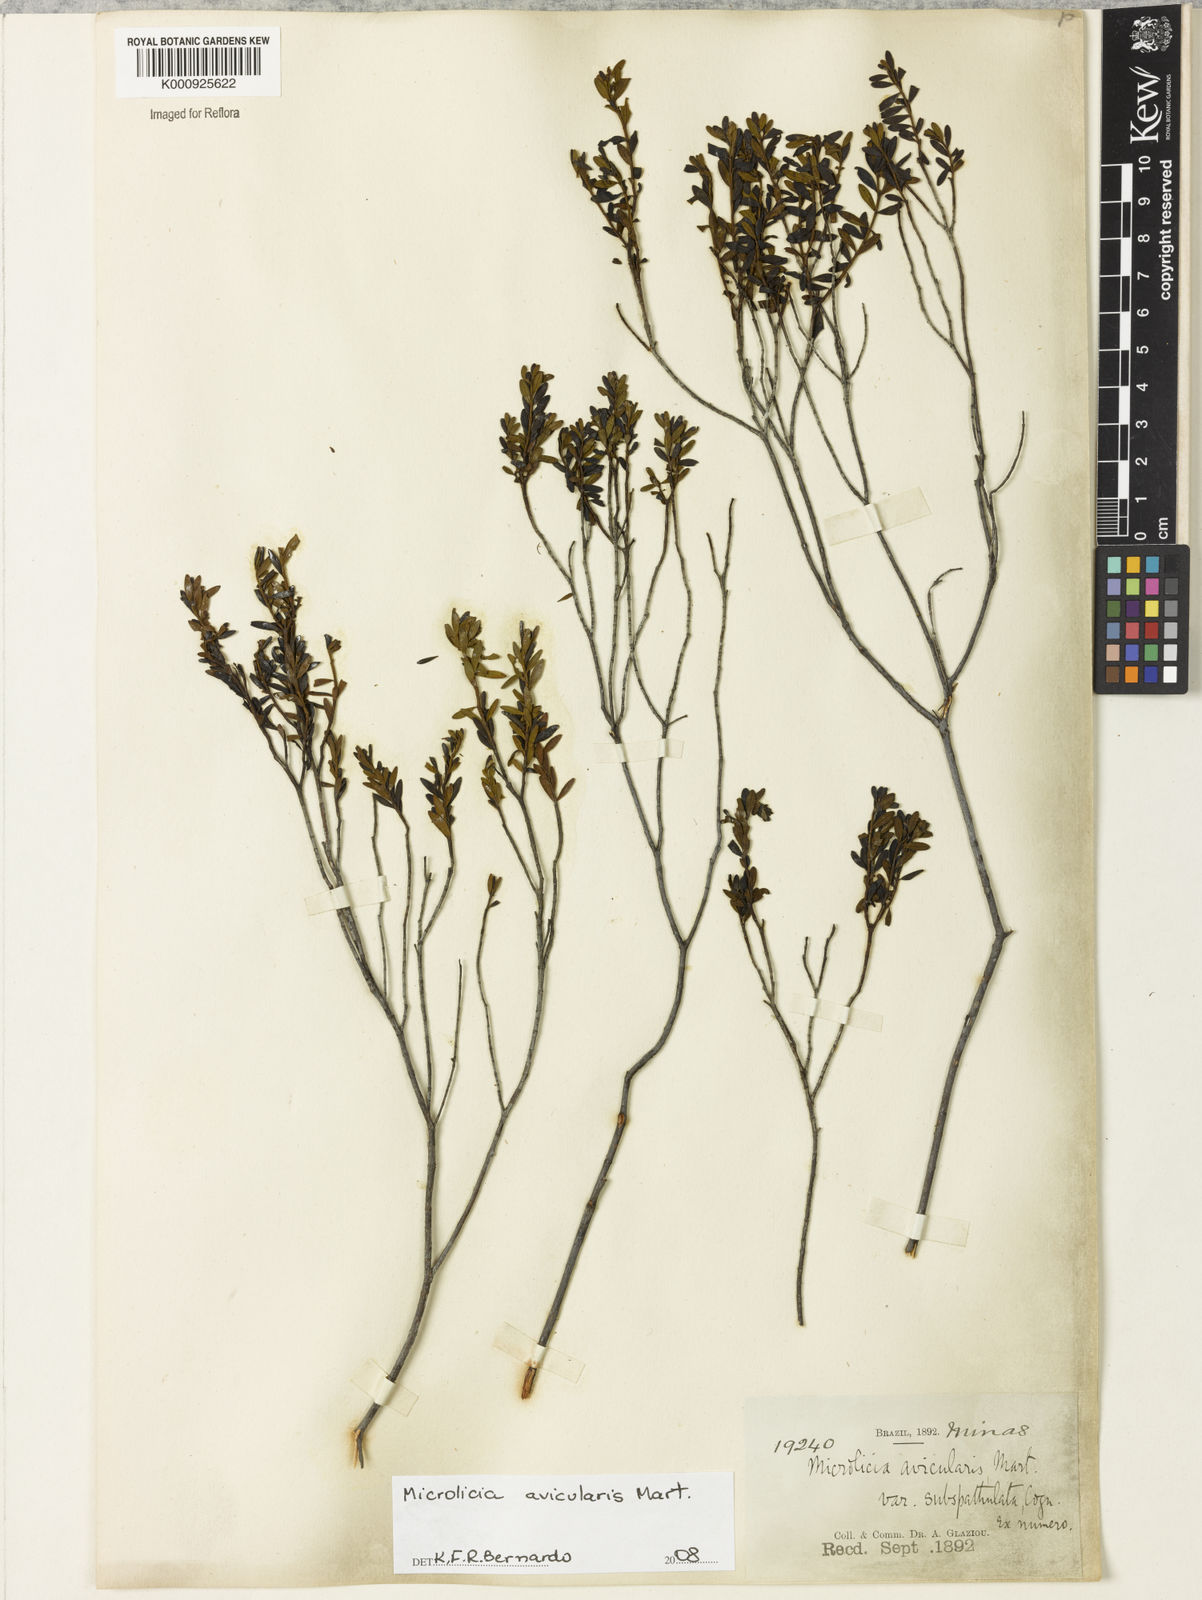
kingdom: Plantae
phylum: Tracheophyta
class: Magnoliopsida
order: Myrtales
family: Melastomataceae
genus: Microlicia
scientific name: Microlicia avicularis
